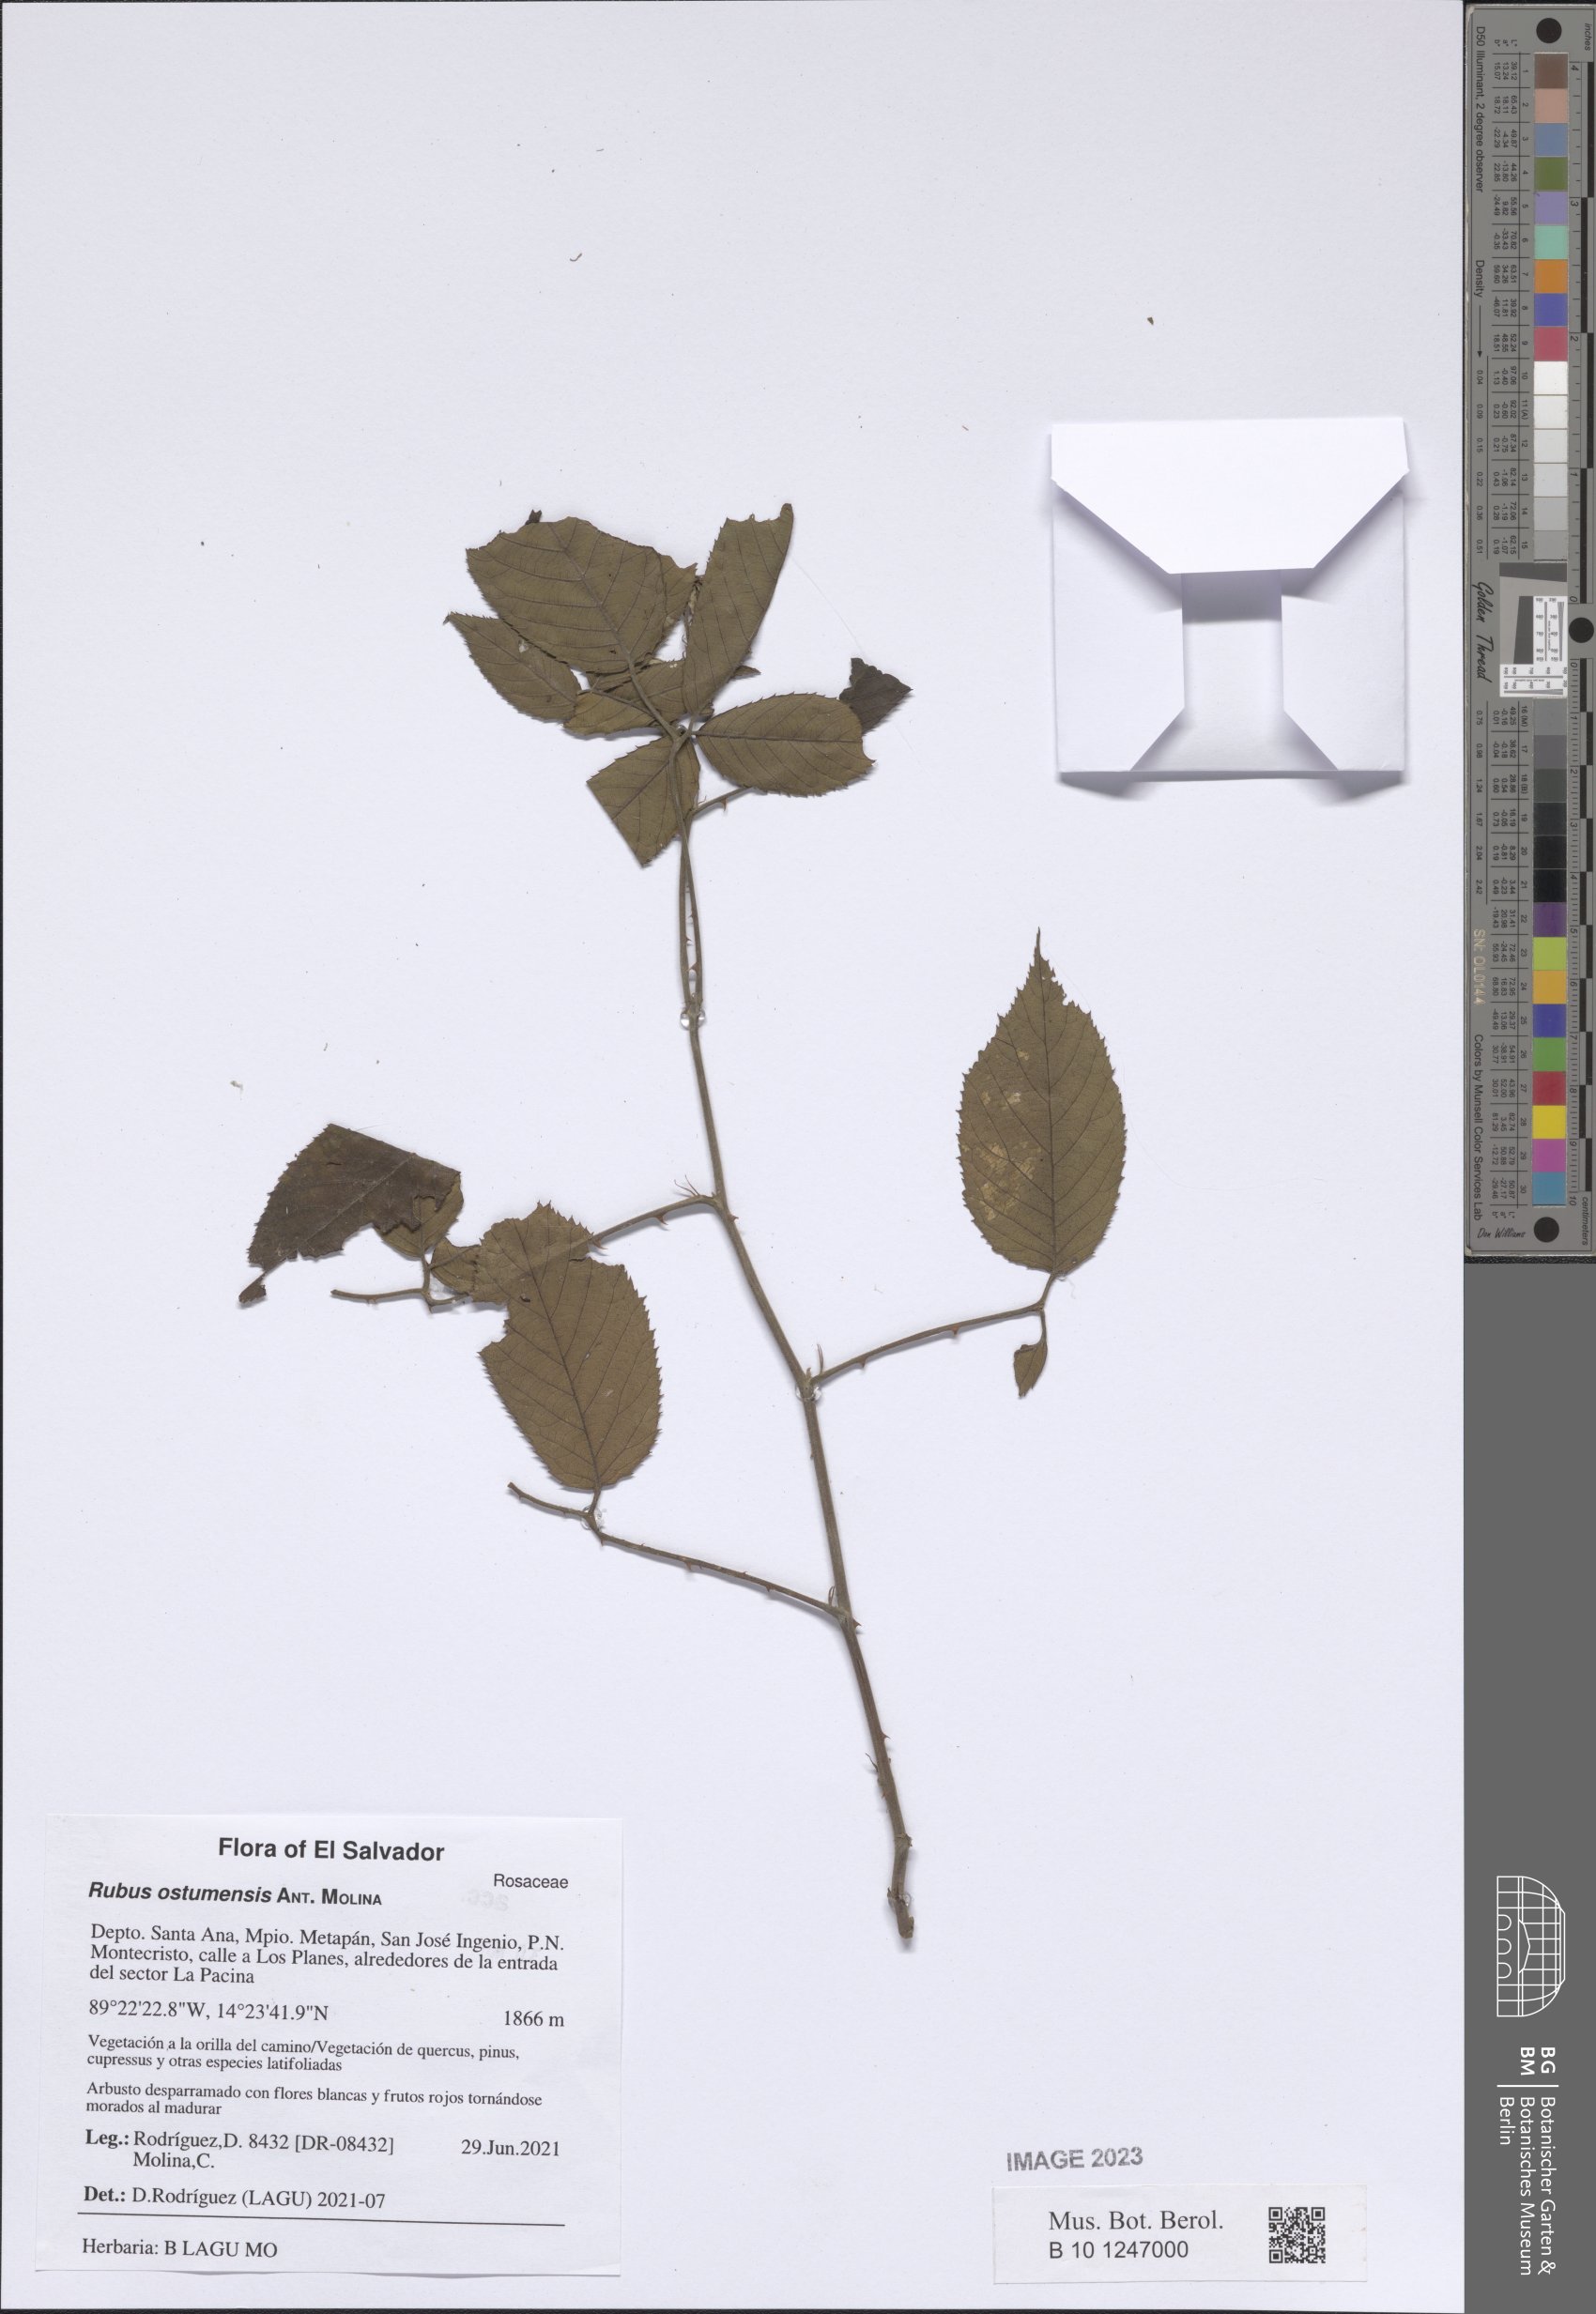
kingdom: Plantae
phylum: Tracheophyta
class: Magnoliopsida
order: Rosales
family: Rosaceae
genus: Rubus
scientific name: Rubus ostumensis
